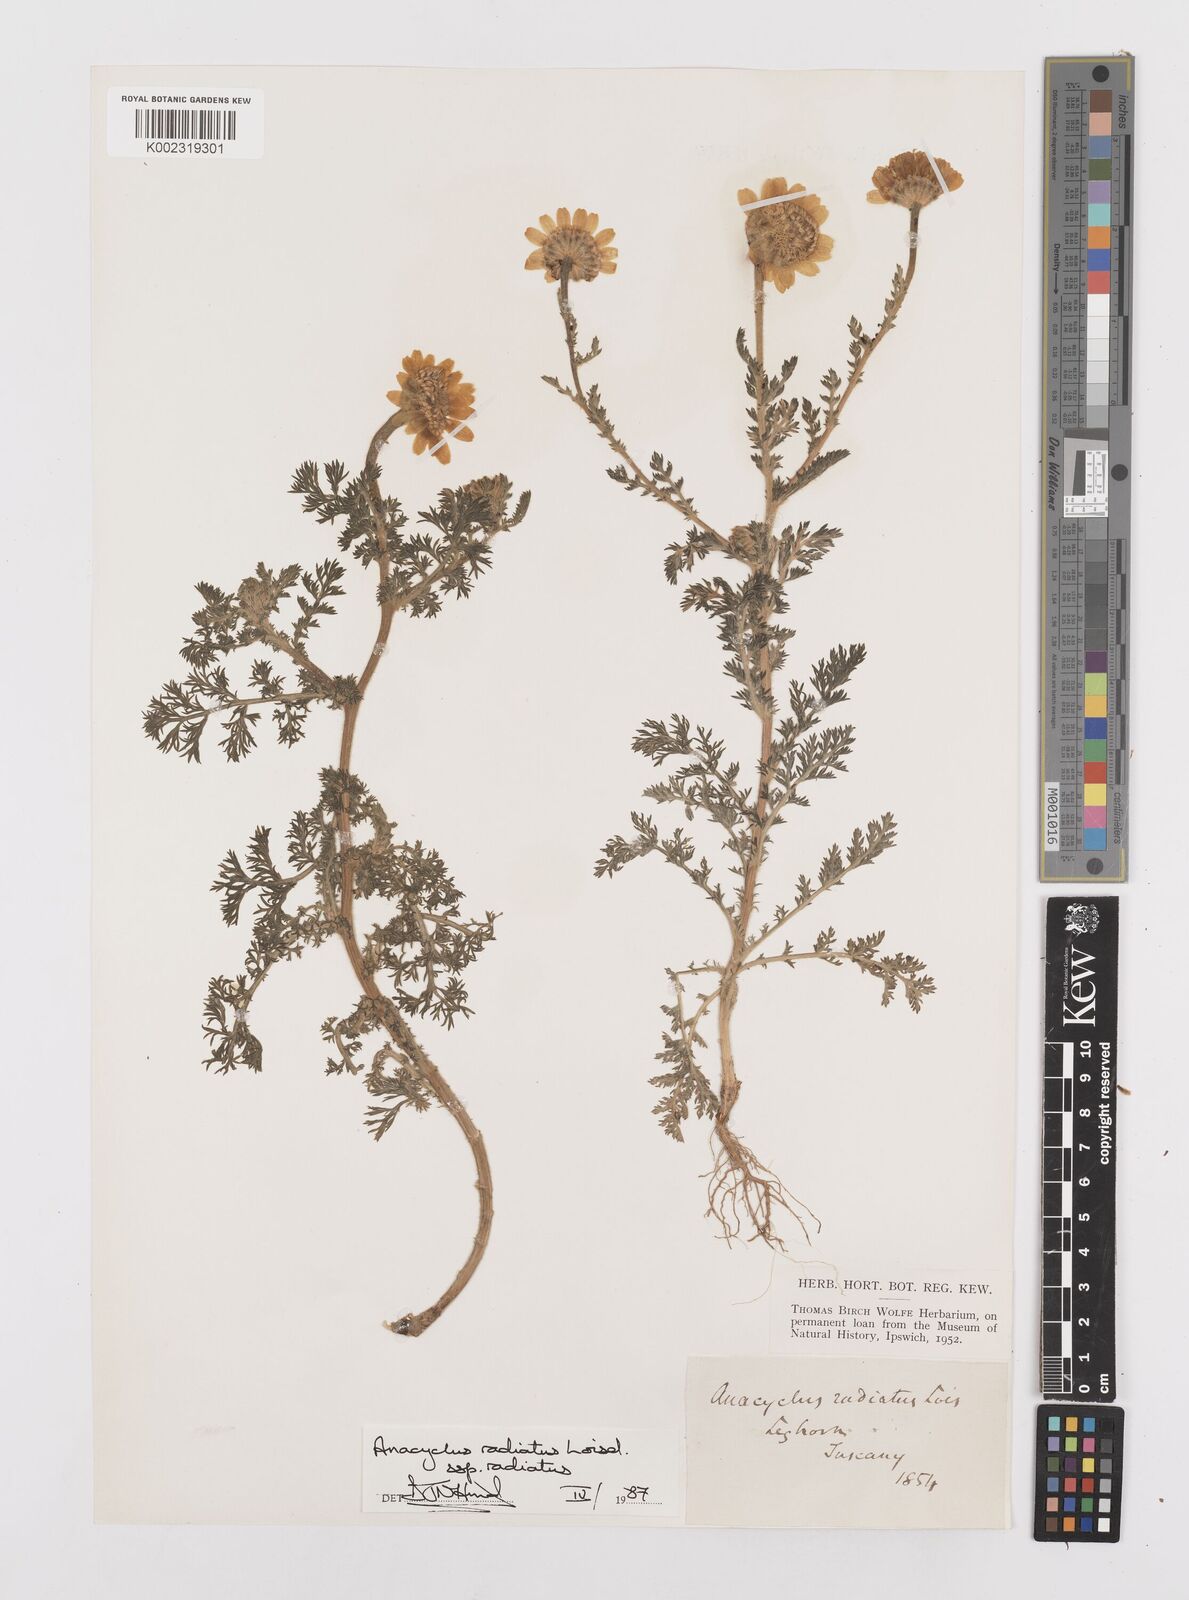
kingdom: Plantae
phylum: Tracheophyta
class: Magnoliopsida
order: Asterales
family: Asteraceae
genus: Anacyclus
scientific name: Anacyclus radiatus
